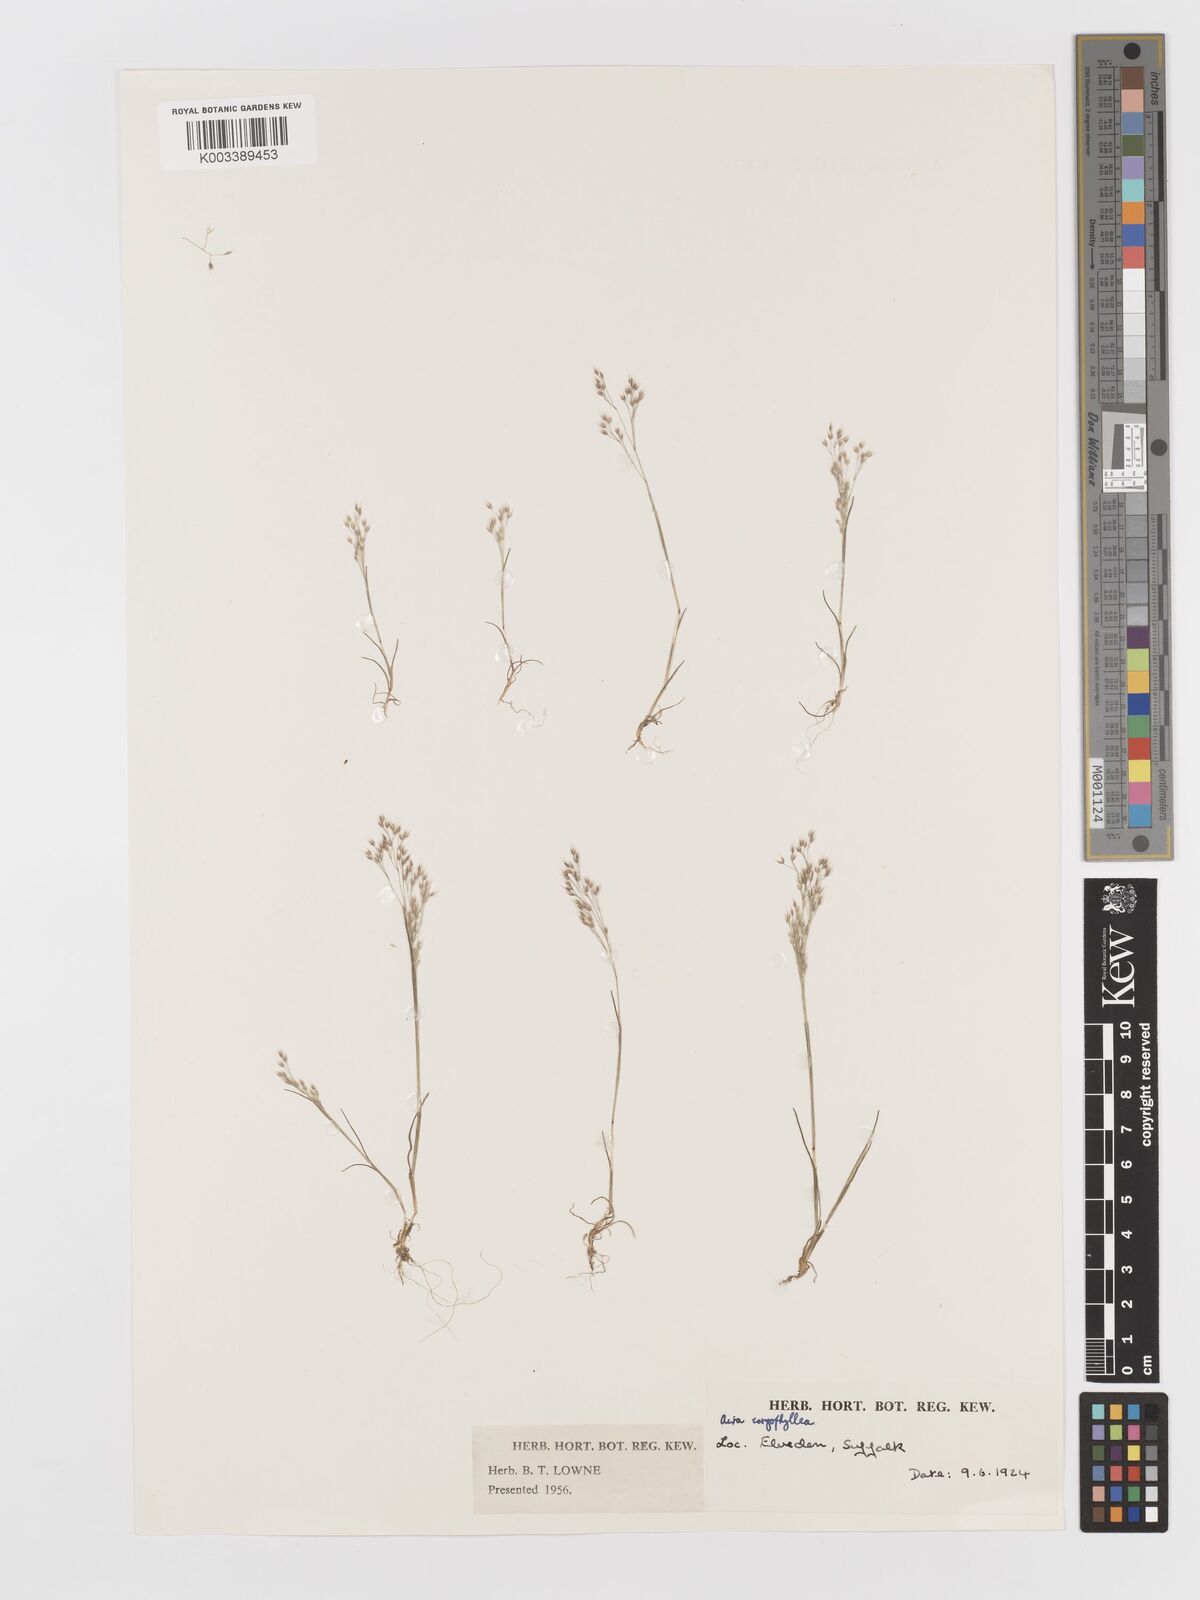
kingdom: Plantae
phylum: Tracheophyta
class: Liliopsida
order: Poales
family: Poaceae
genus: Aira
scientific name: Aira caryophyllea
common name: Silver hairgrass
